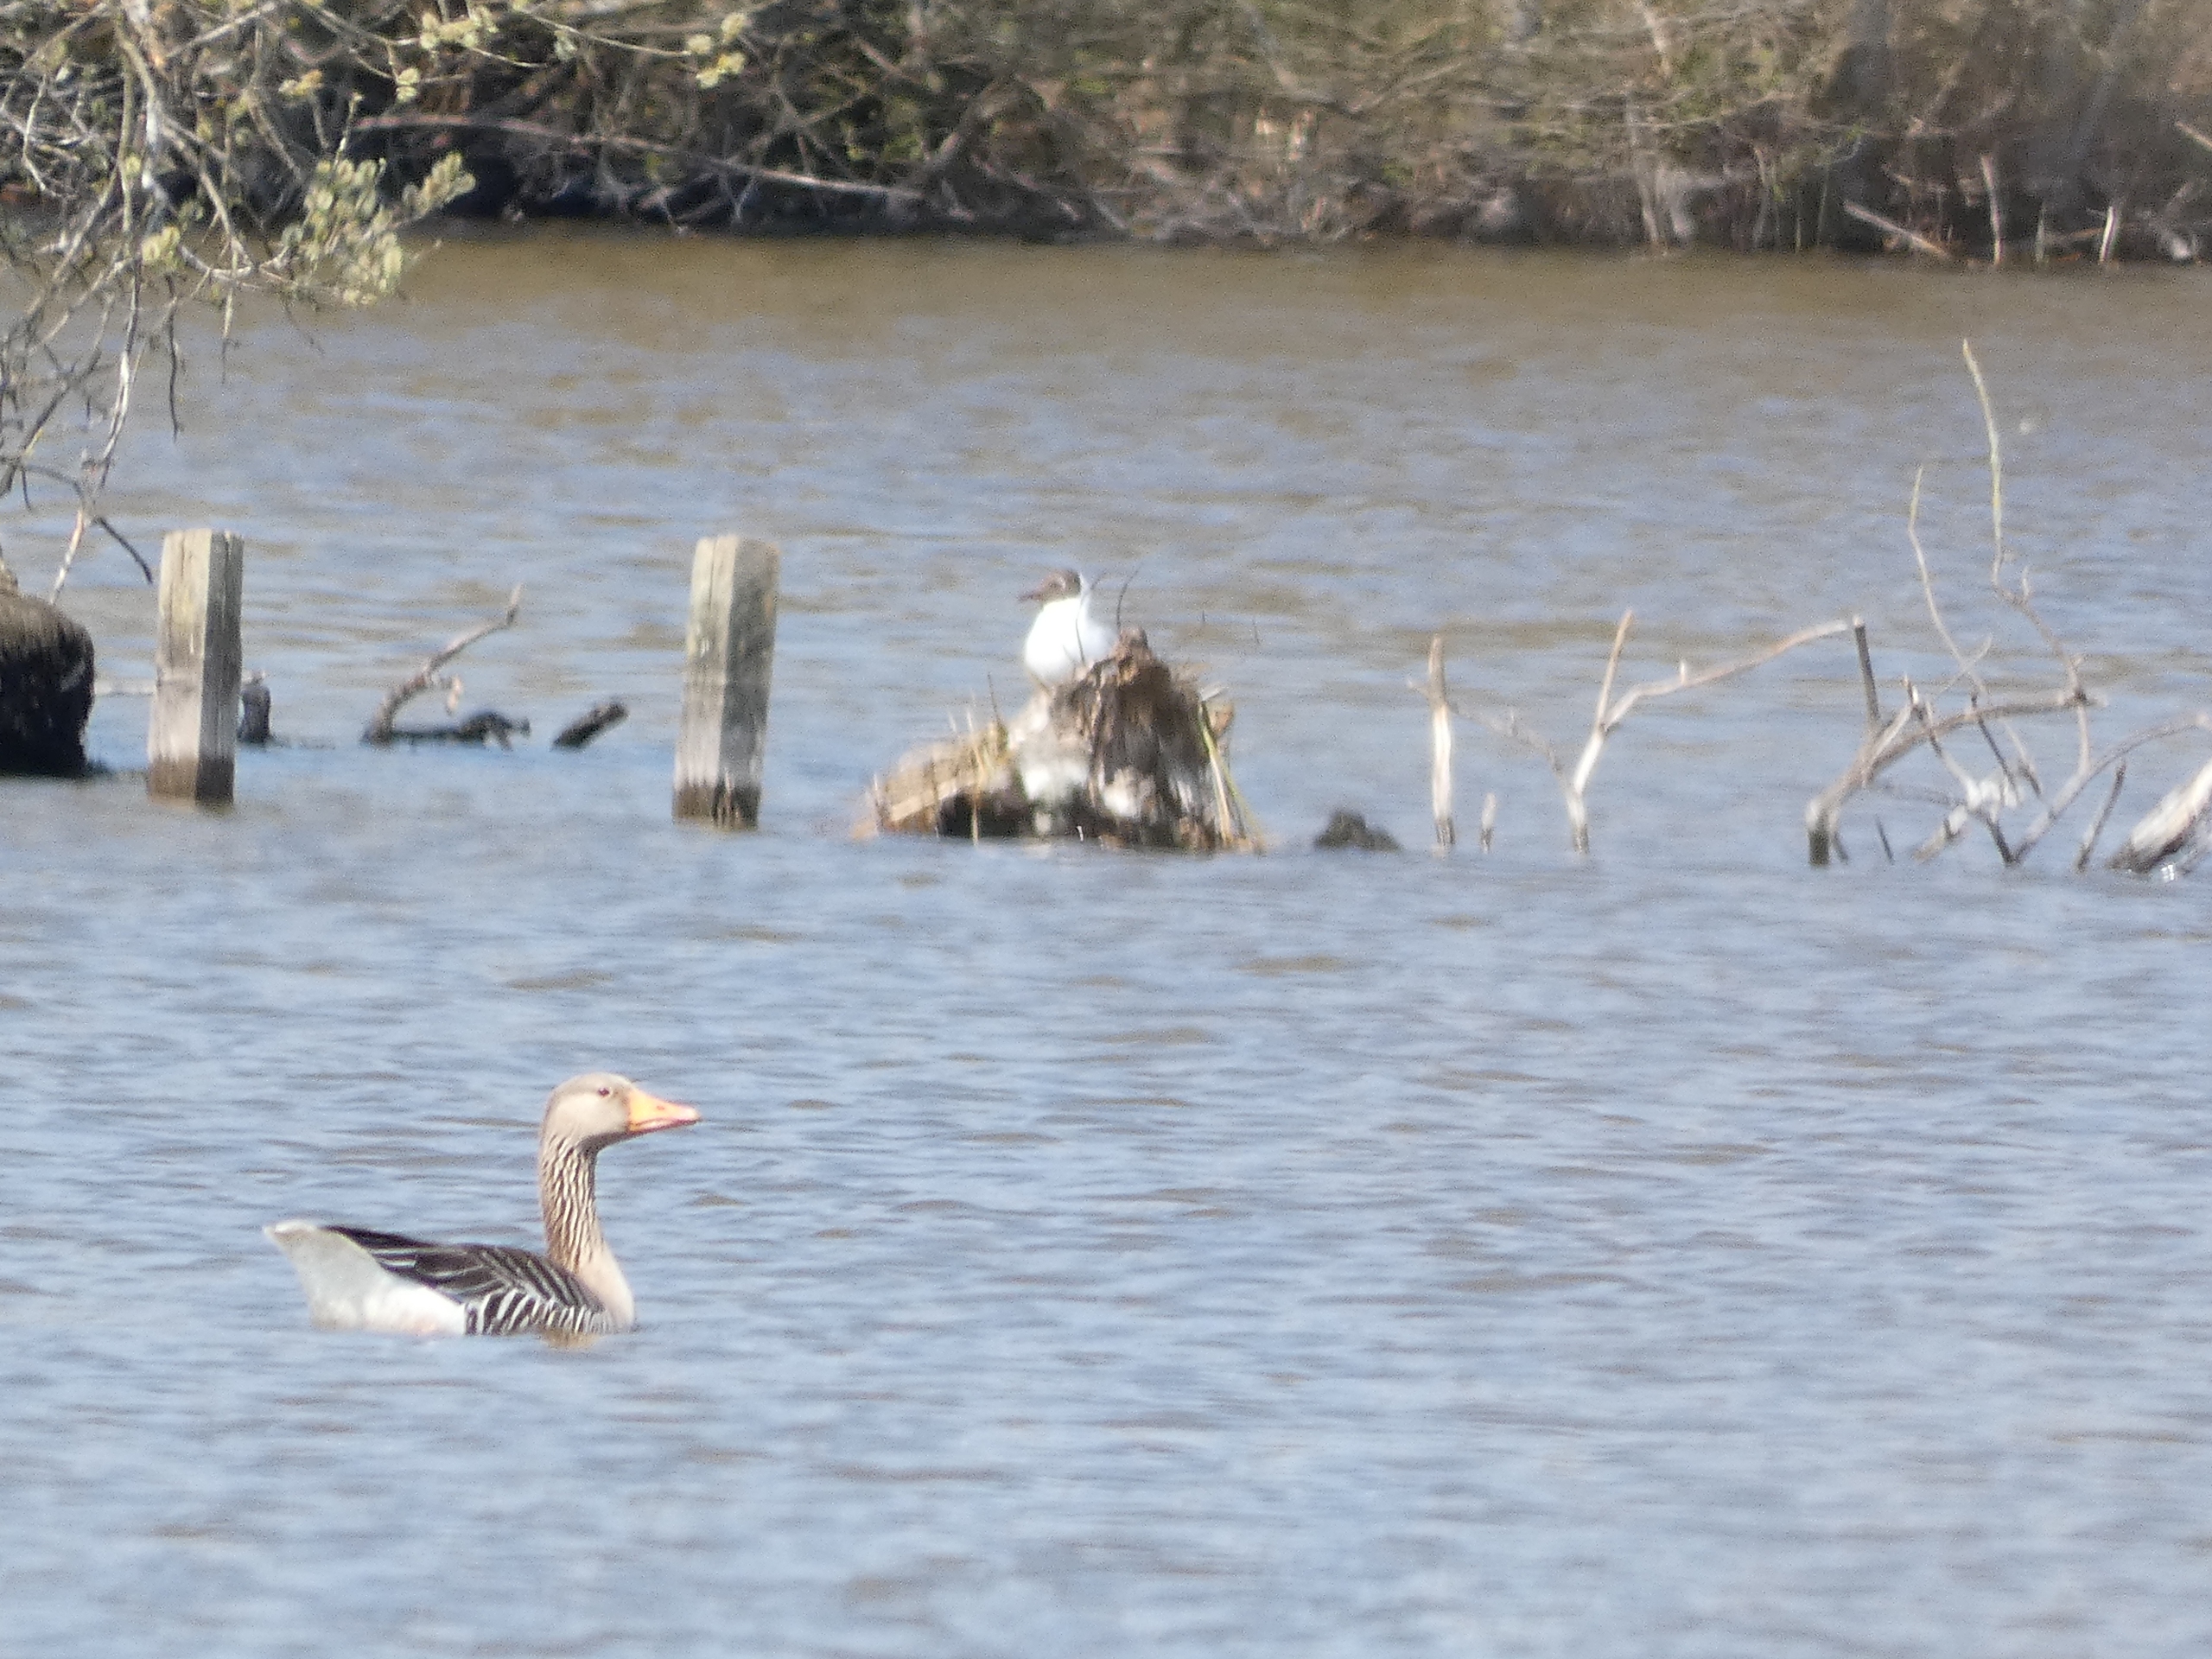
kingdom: Animalia
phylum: Chordata
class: Aves
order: Anseriformes
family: Anatidae
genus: Anser
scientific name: Anser anser
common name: Grågås
